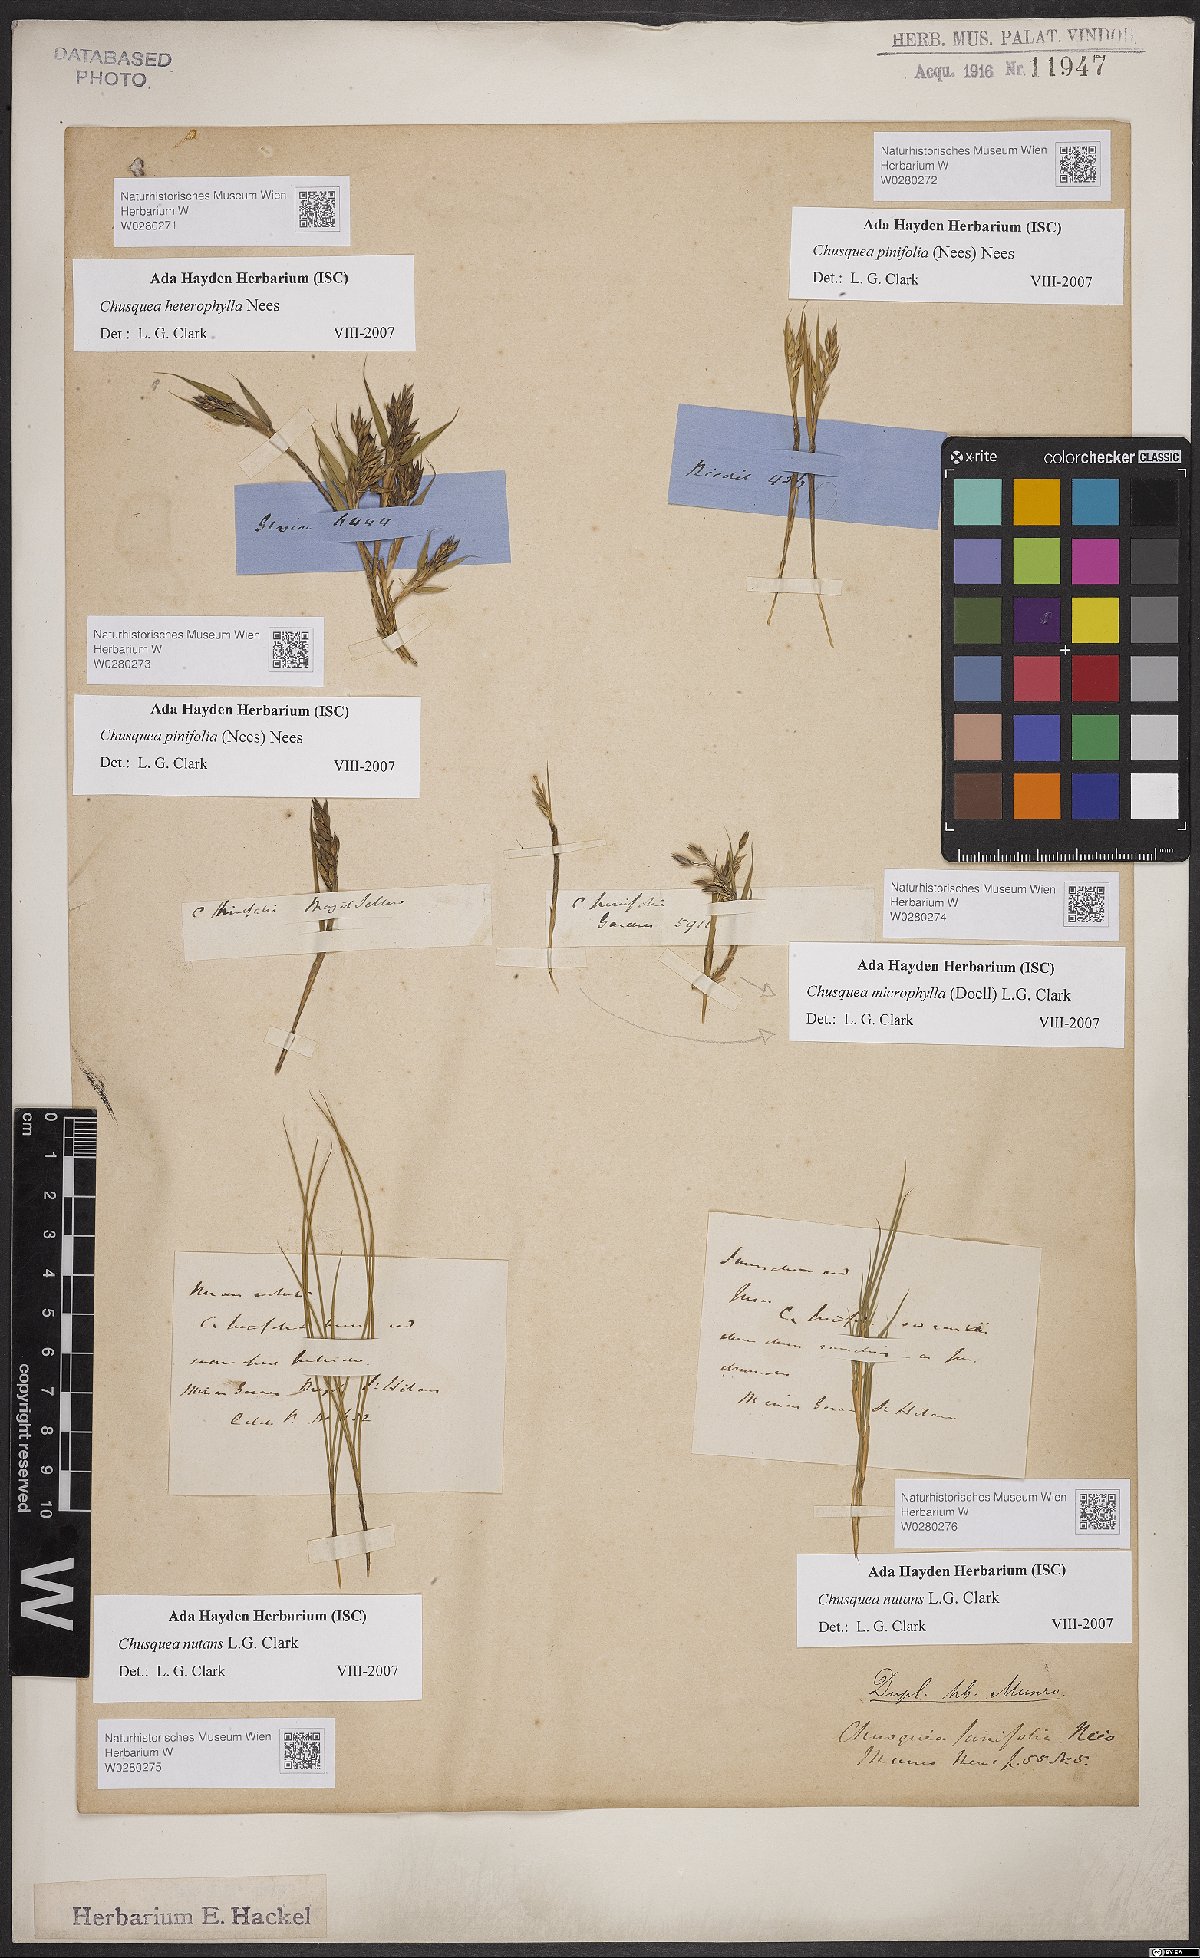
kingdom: Plantae
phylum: Tracheophyta
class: Liliopsida
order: Poales
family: Poaceae
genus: Chusquea
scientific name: Chusquea nutans
